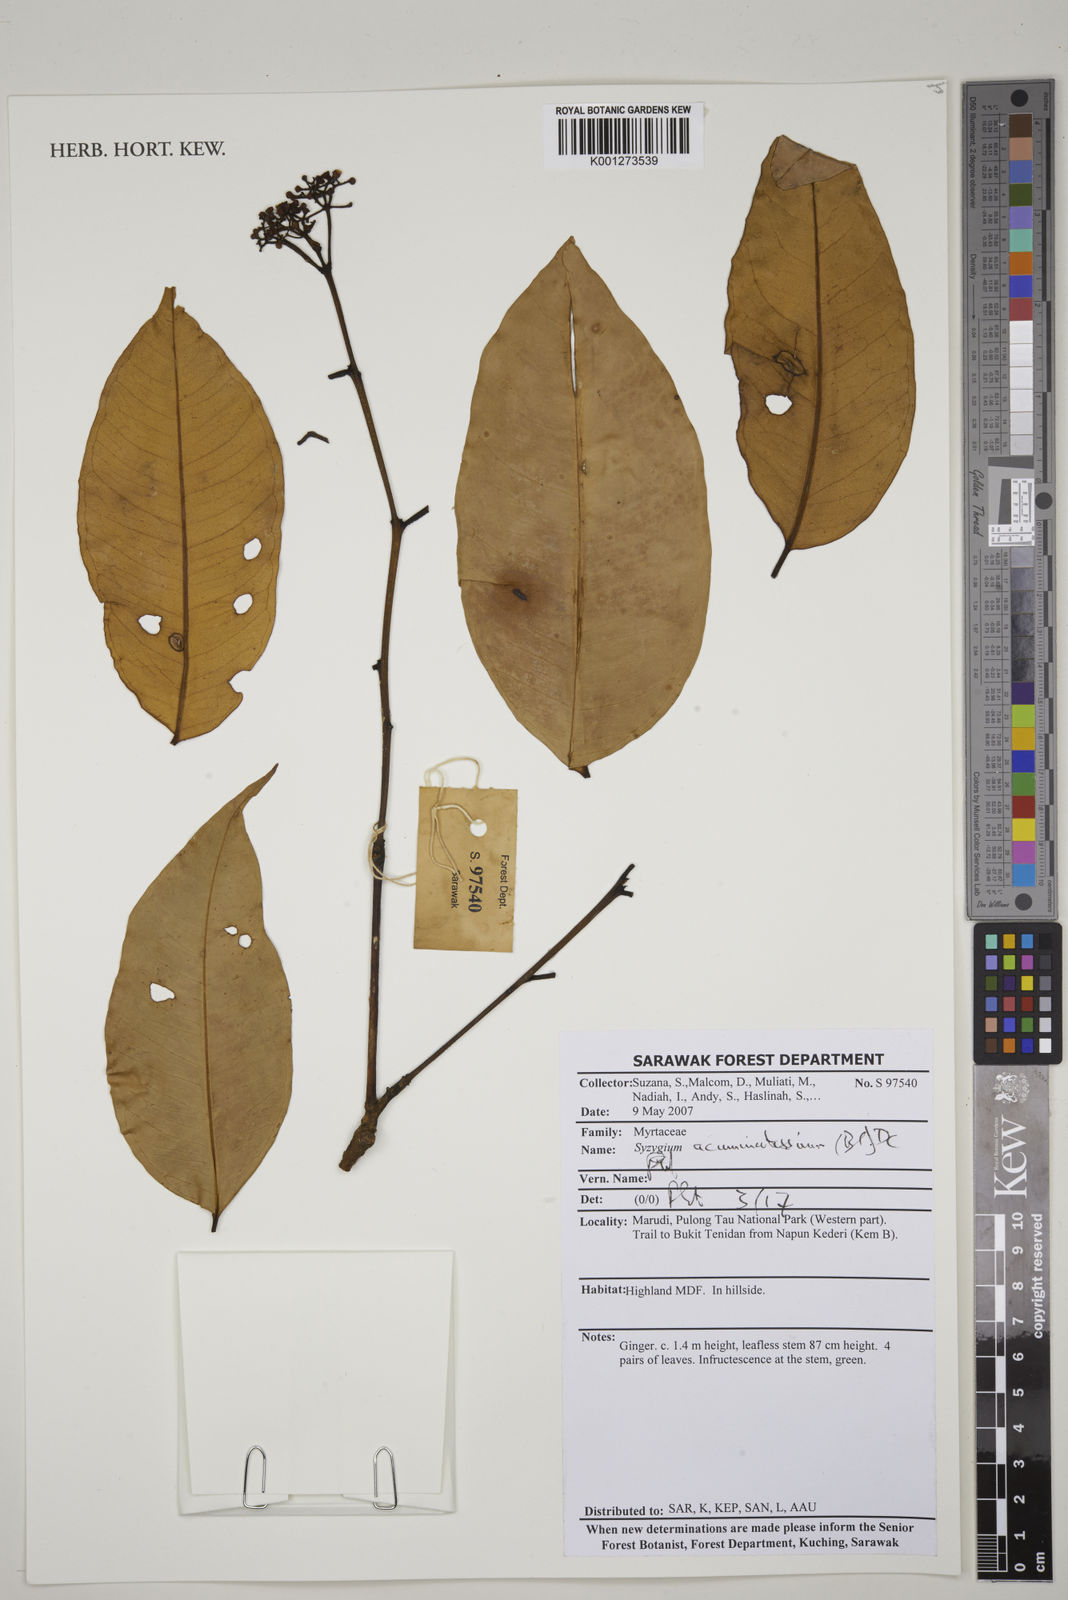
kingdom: Plantae
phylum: Tracheophyta
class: Magnoliopsida
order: Myrtales
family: Myrtaceae
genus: Syzygium
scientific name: Syzygium acuminatissimum
